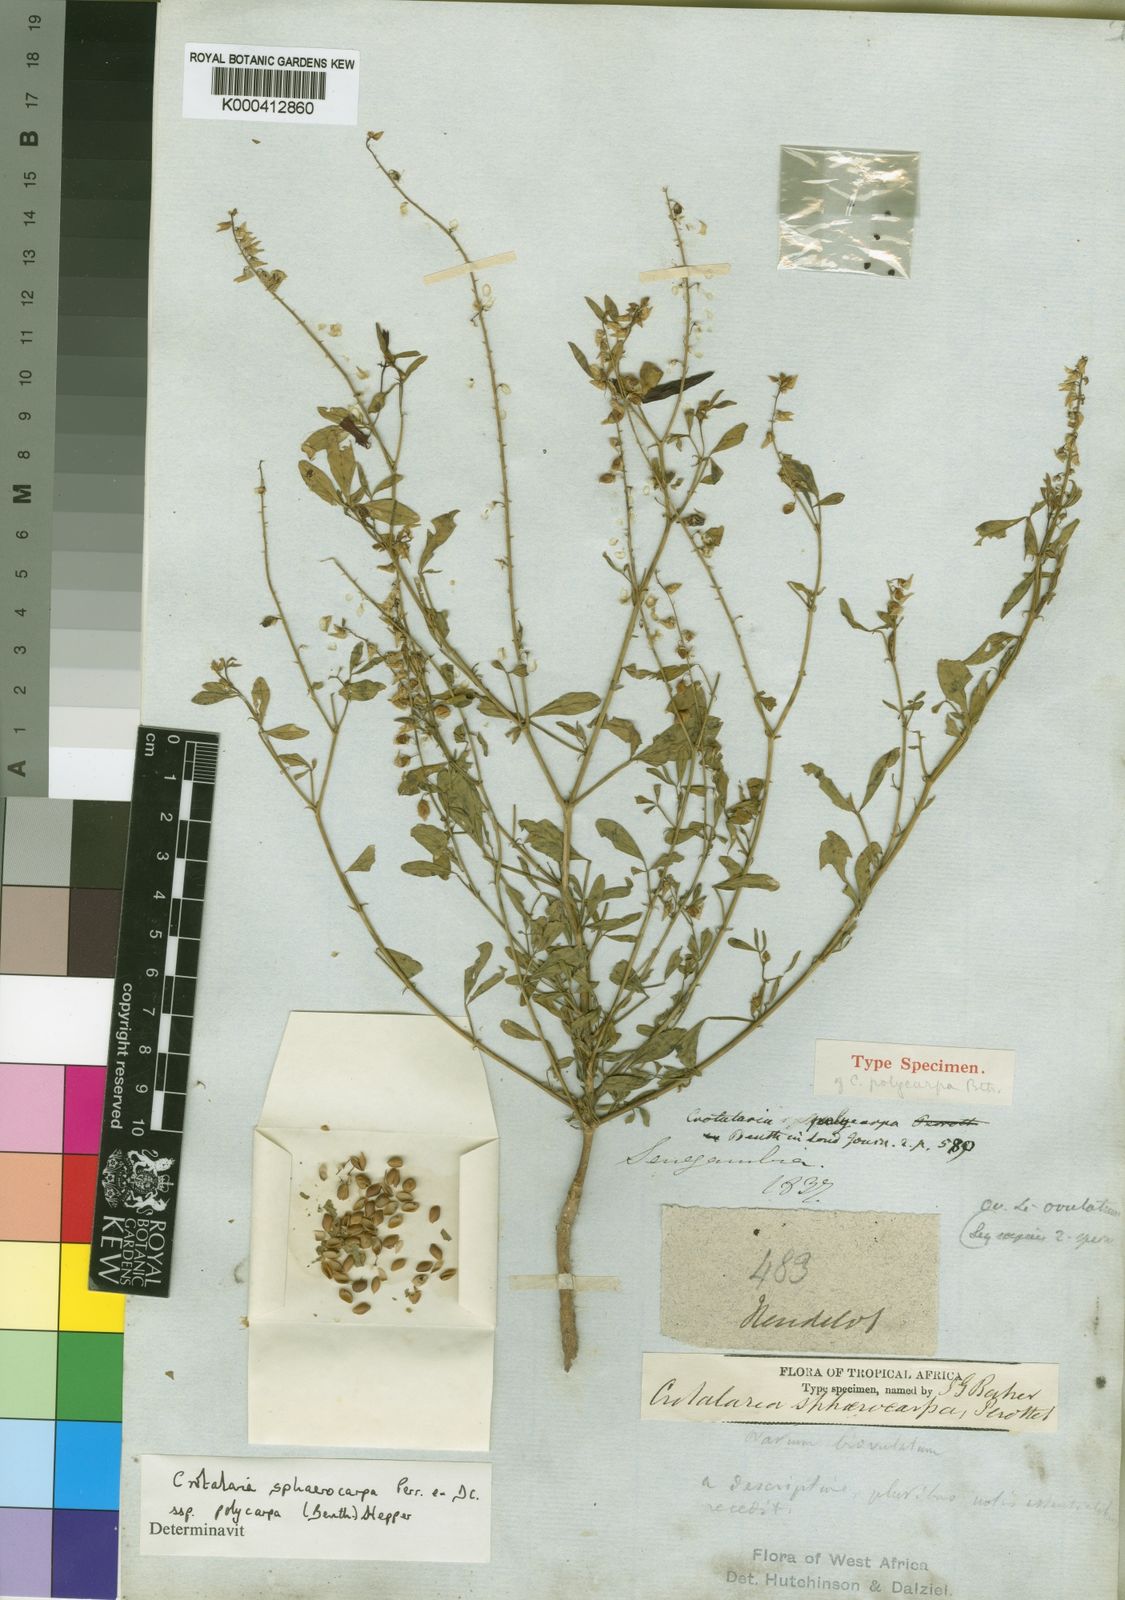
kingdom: Plantae
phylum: Tracheophyta
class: Magnoliopsida
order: Fabales
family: Fabaceae
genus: Crotalaria
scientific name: Crotalaria sphaerocarpa
